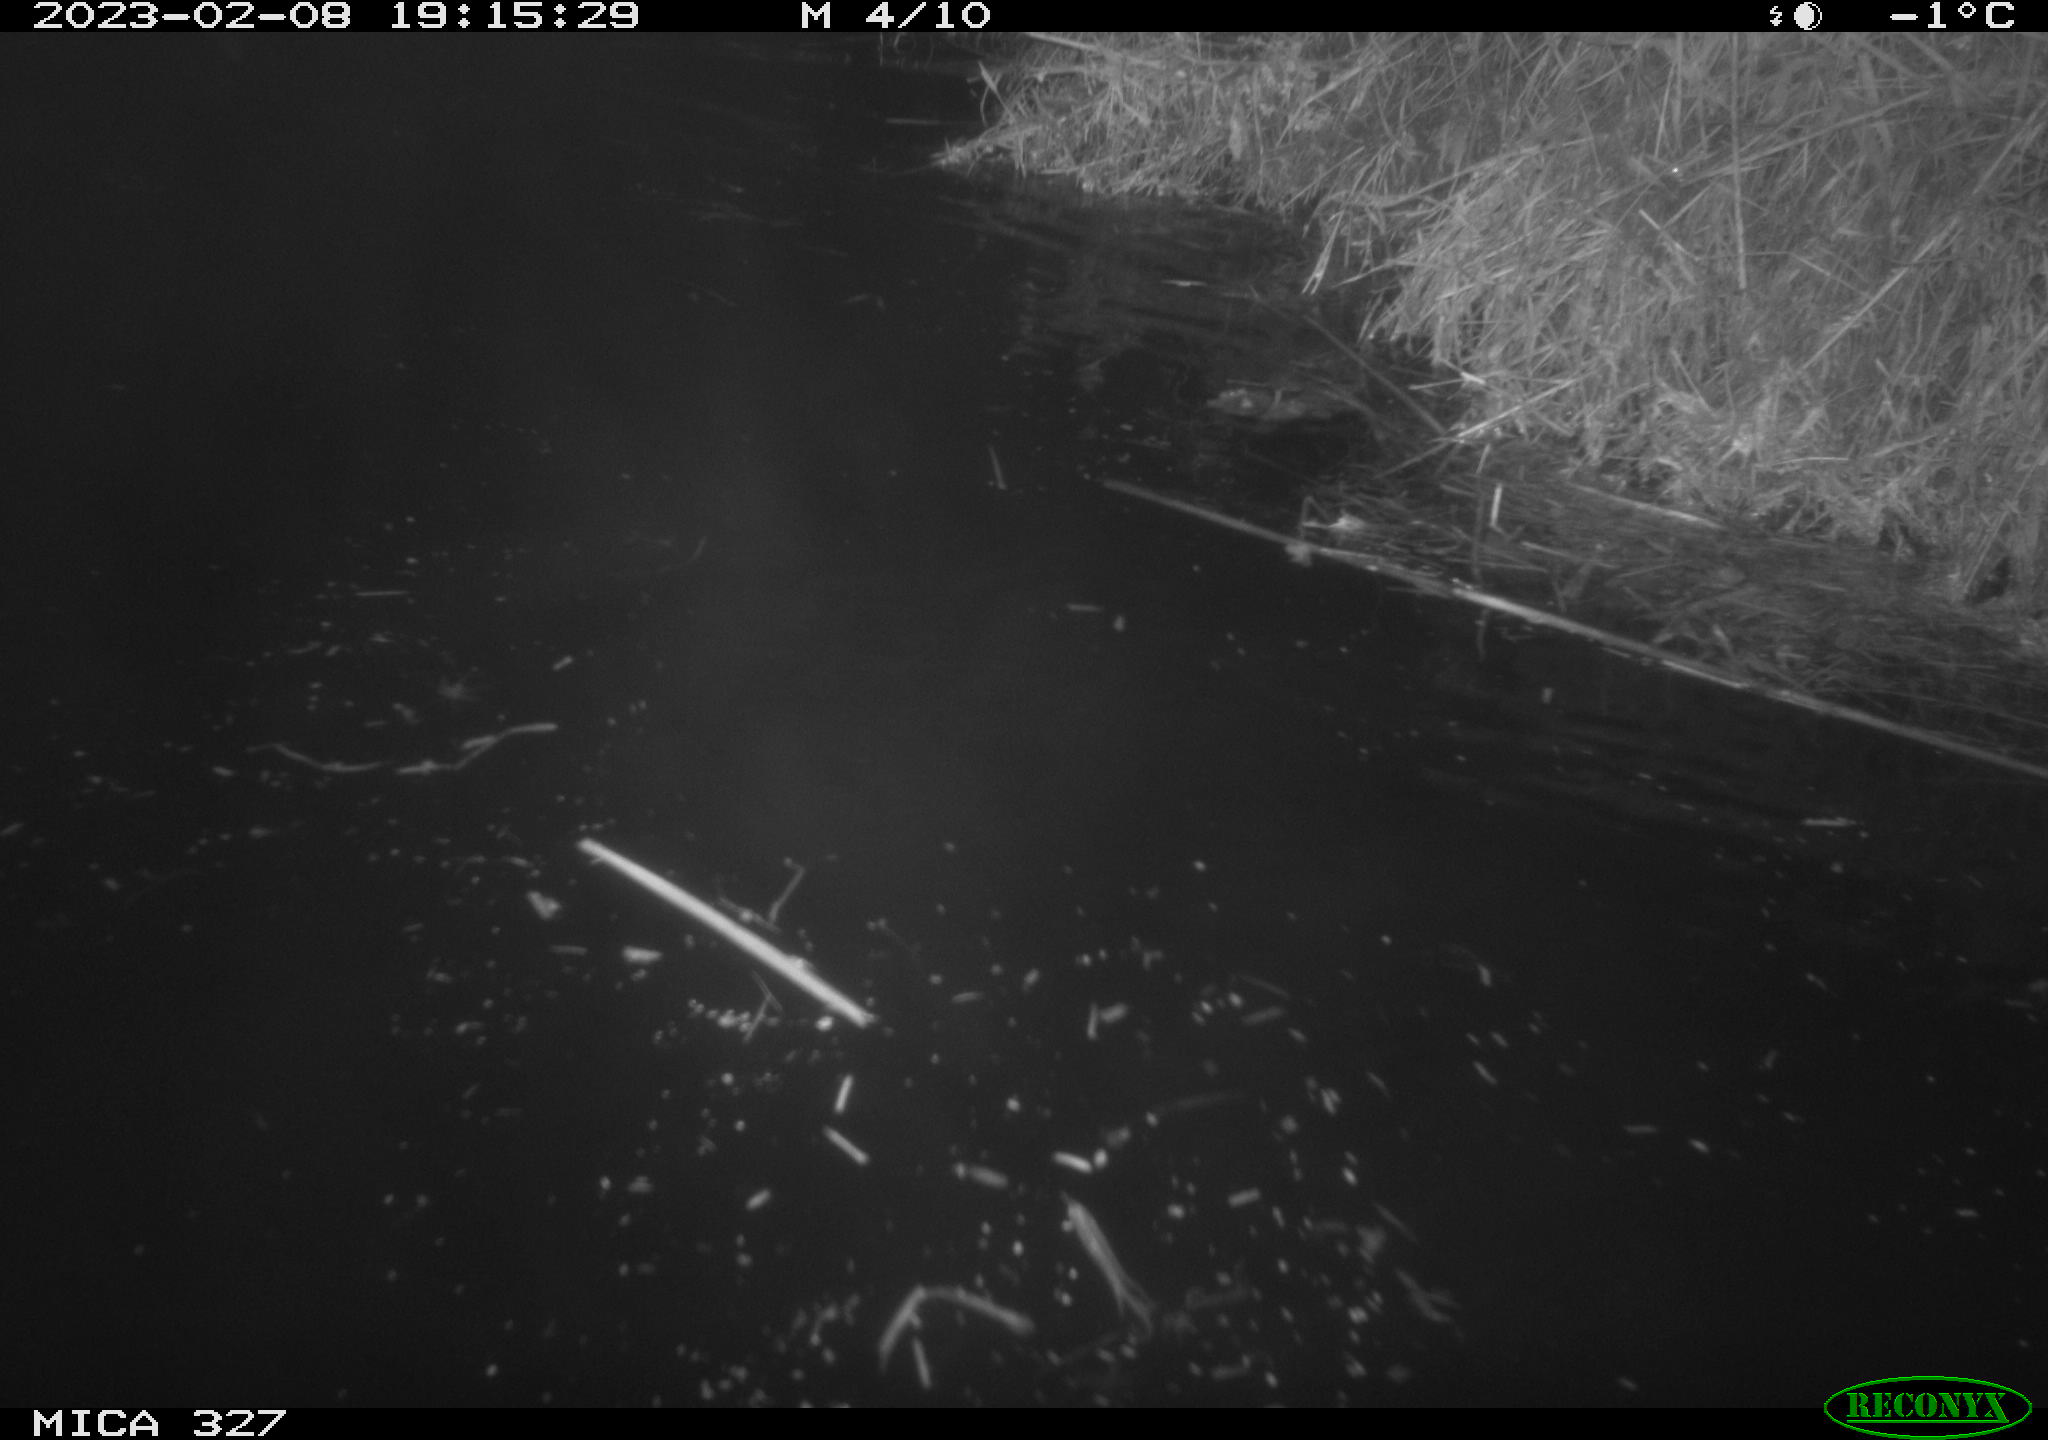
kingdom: Animalia
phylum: Chordata
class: Mammalia
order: Carnivora
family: Mustelidae
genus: Lutra
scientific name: Lutra lutra
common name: European otter
